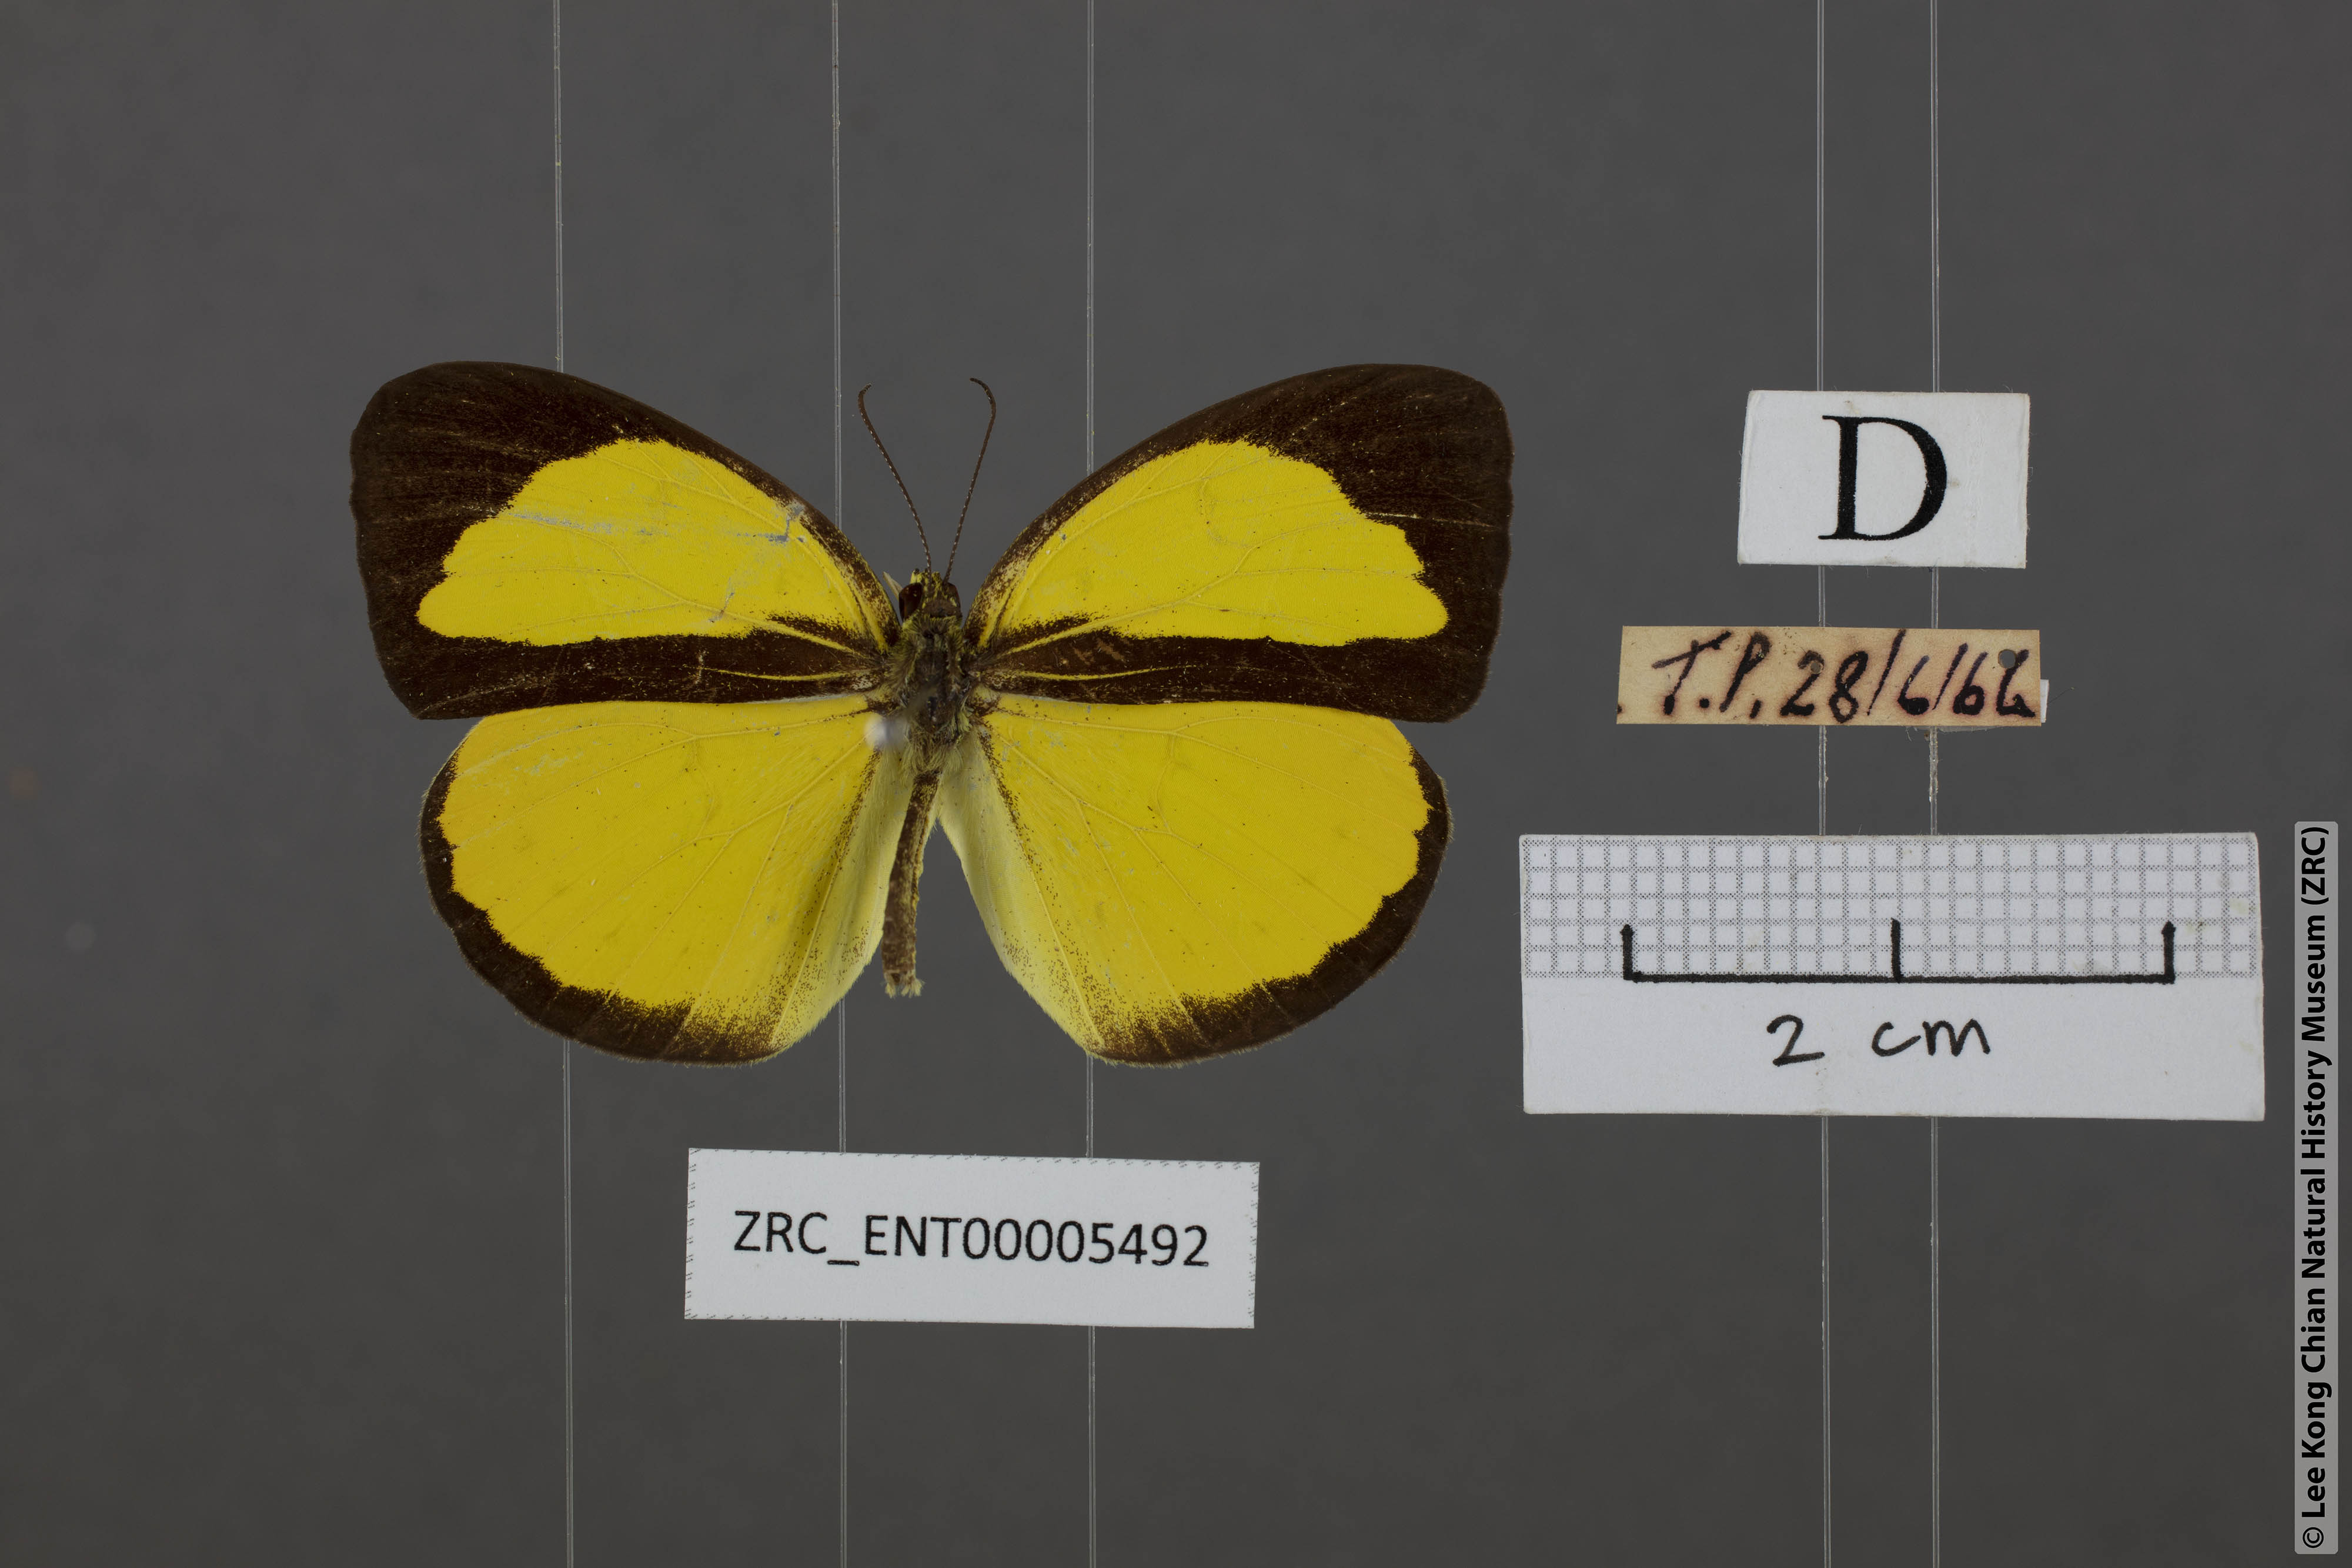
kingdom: Animalia
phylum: Arthropoda
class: Insecta
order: Lepidoptera
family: Pieridae
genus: Eurema
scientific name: Eurema nicevillei
